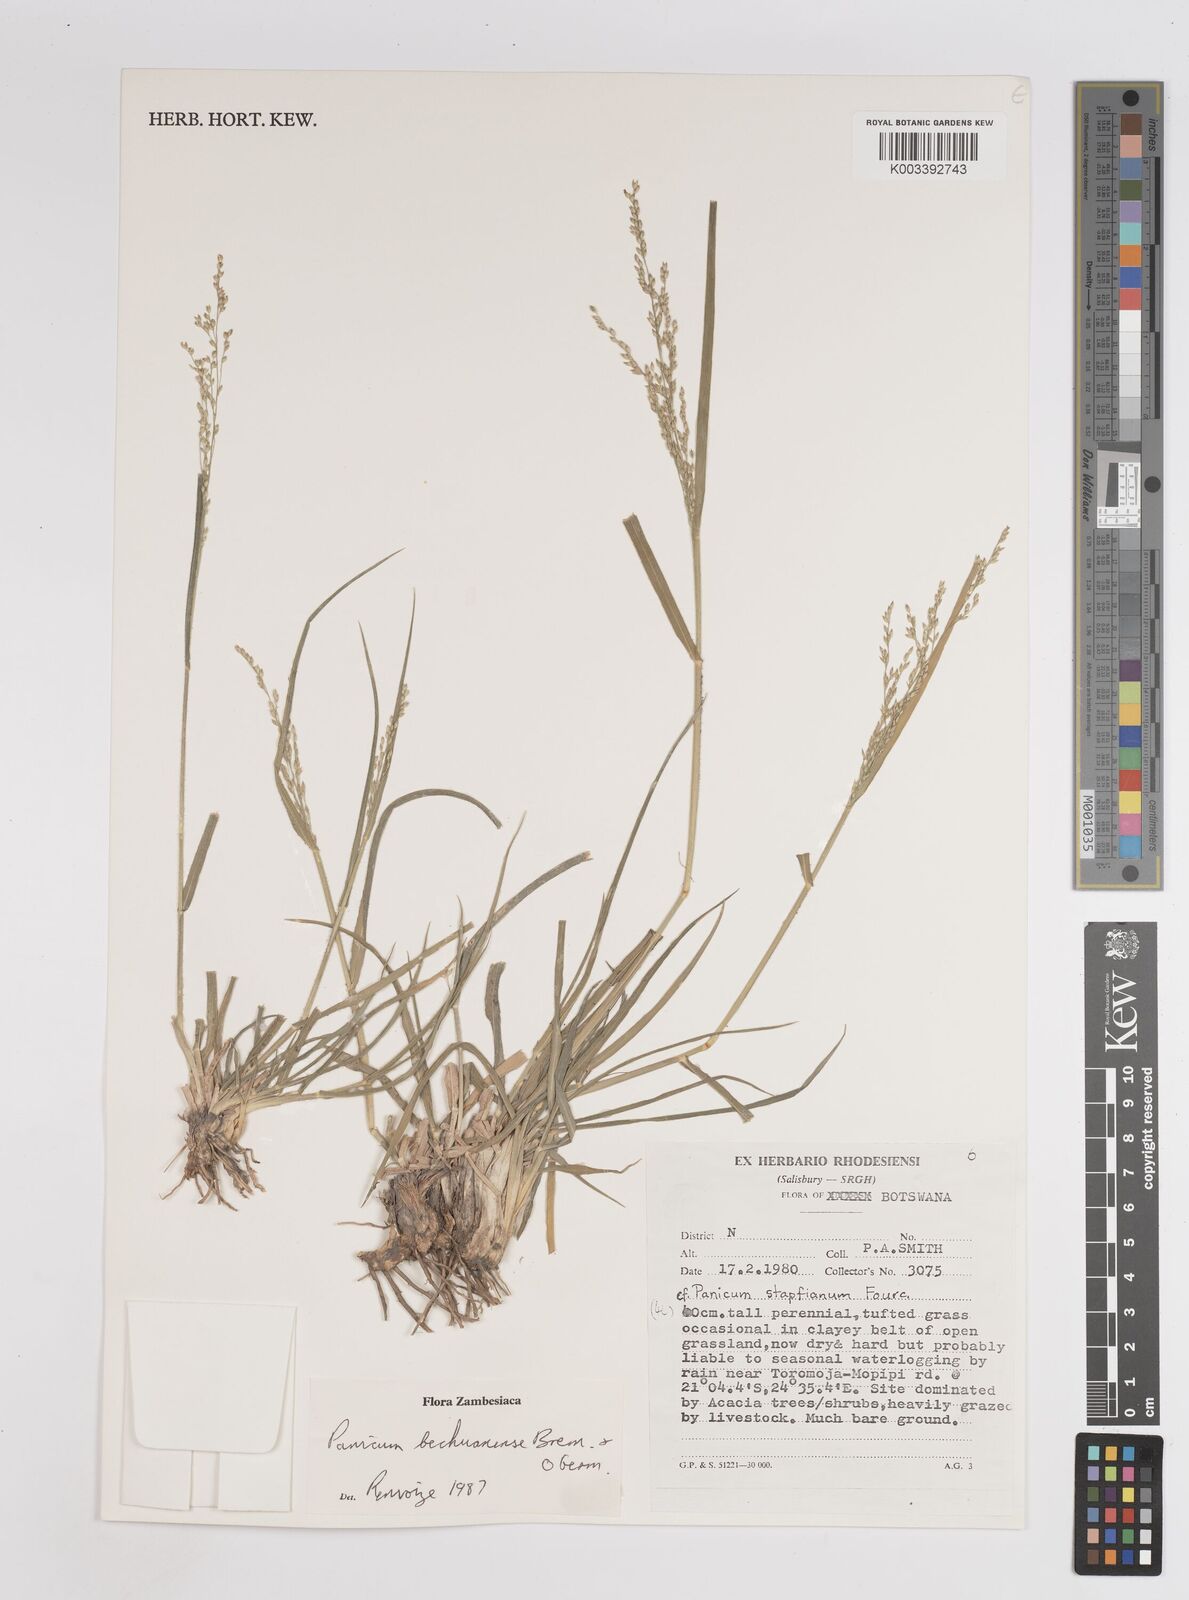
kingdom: Plantae
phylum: Tracheophyta
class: Liliopsida
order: Poales
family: Poaceae
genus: Panicum
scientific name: Panicum bechuanense
